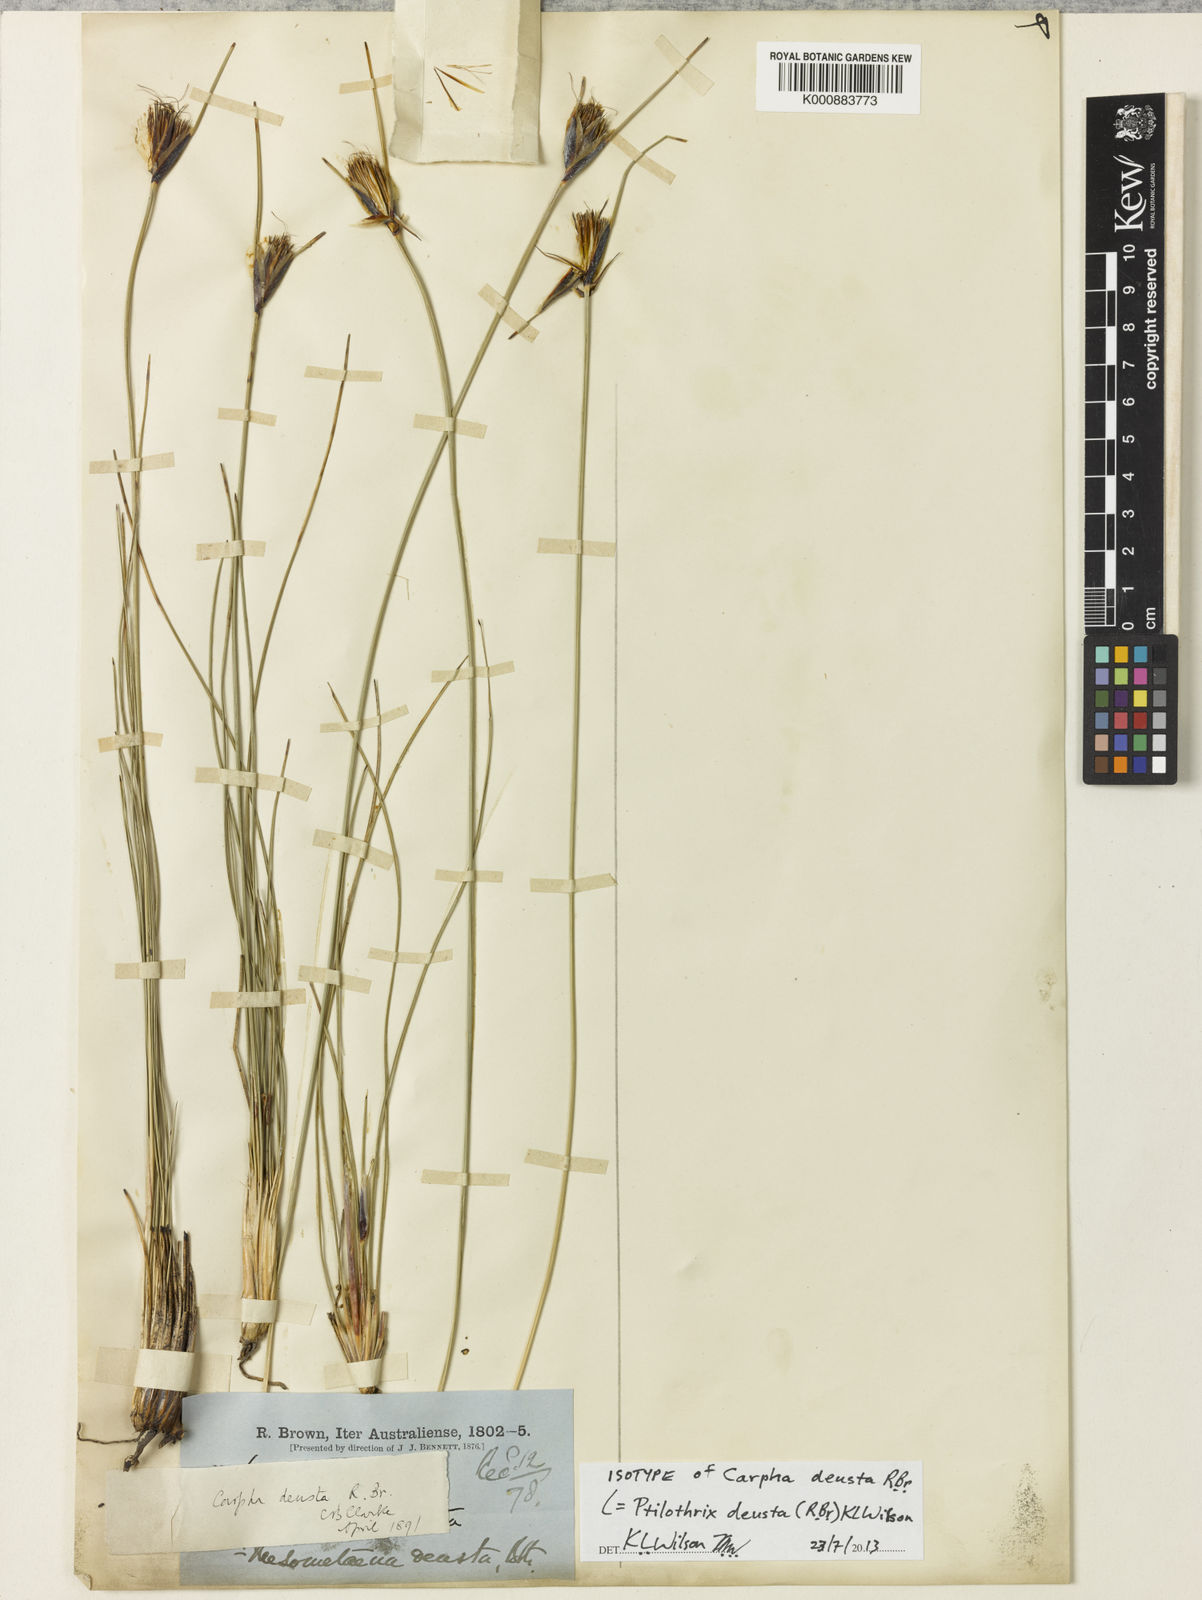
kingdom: Plantae
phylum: Tracheophyta
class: Liliopsida
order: Poales
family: Cyperaceae
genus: Schoenus
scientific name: Schoenus
